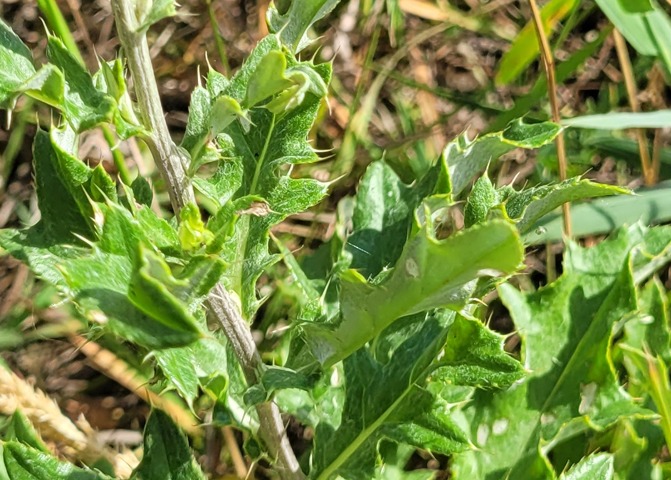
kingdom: Plantae
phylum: Tracheophyta
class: Magnoliopsida
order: Asterales
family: Asteraceae
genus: Cirsium
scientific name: Cirsium arvense
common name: Ager-tidsel
